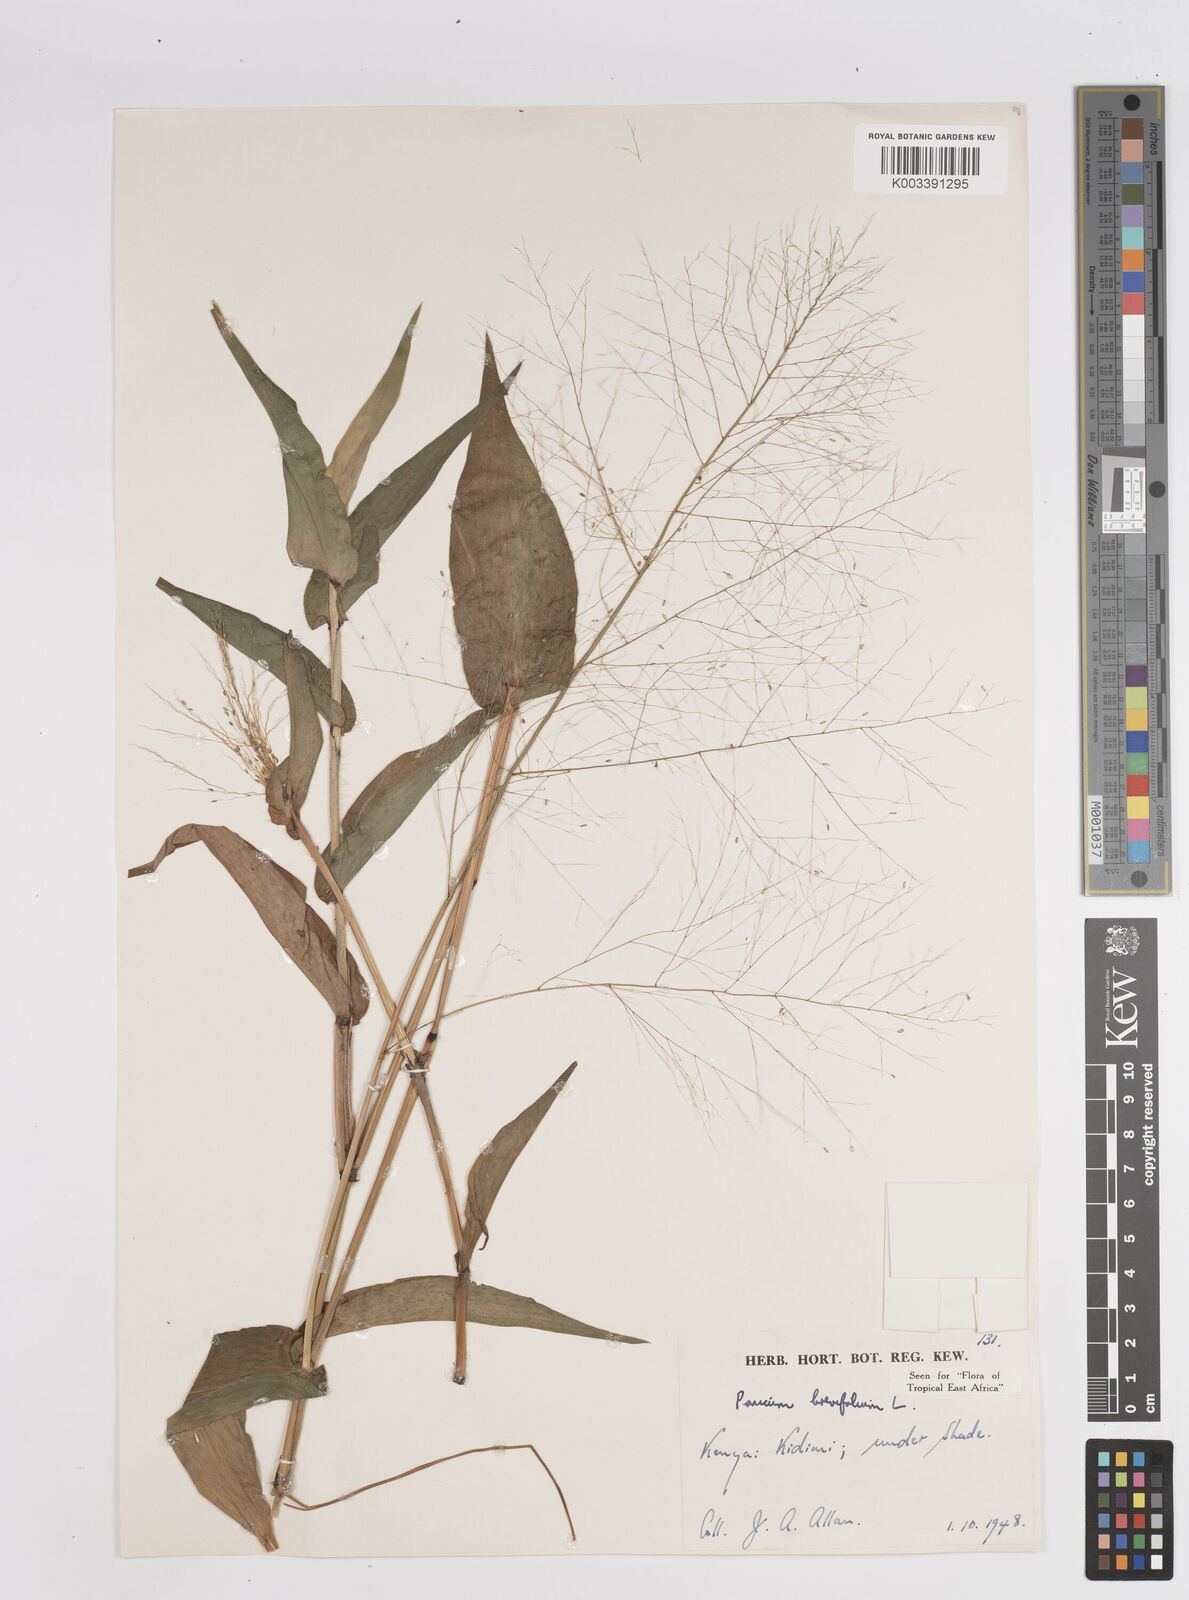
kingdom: Plantae
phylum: Tracheophyta
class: Liliopsida
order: Poales
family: Poaceae
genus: Panicum
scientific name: Panicum brevifolium
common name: Shortleaf panic grass
